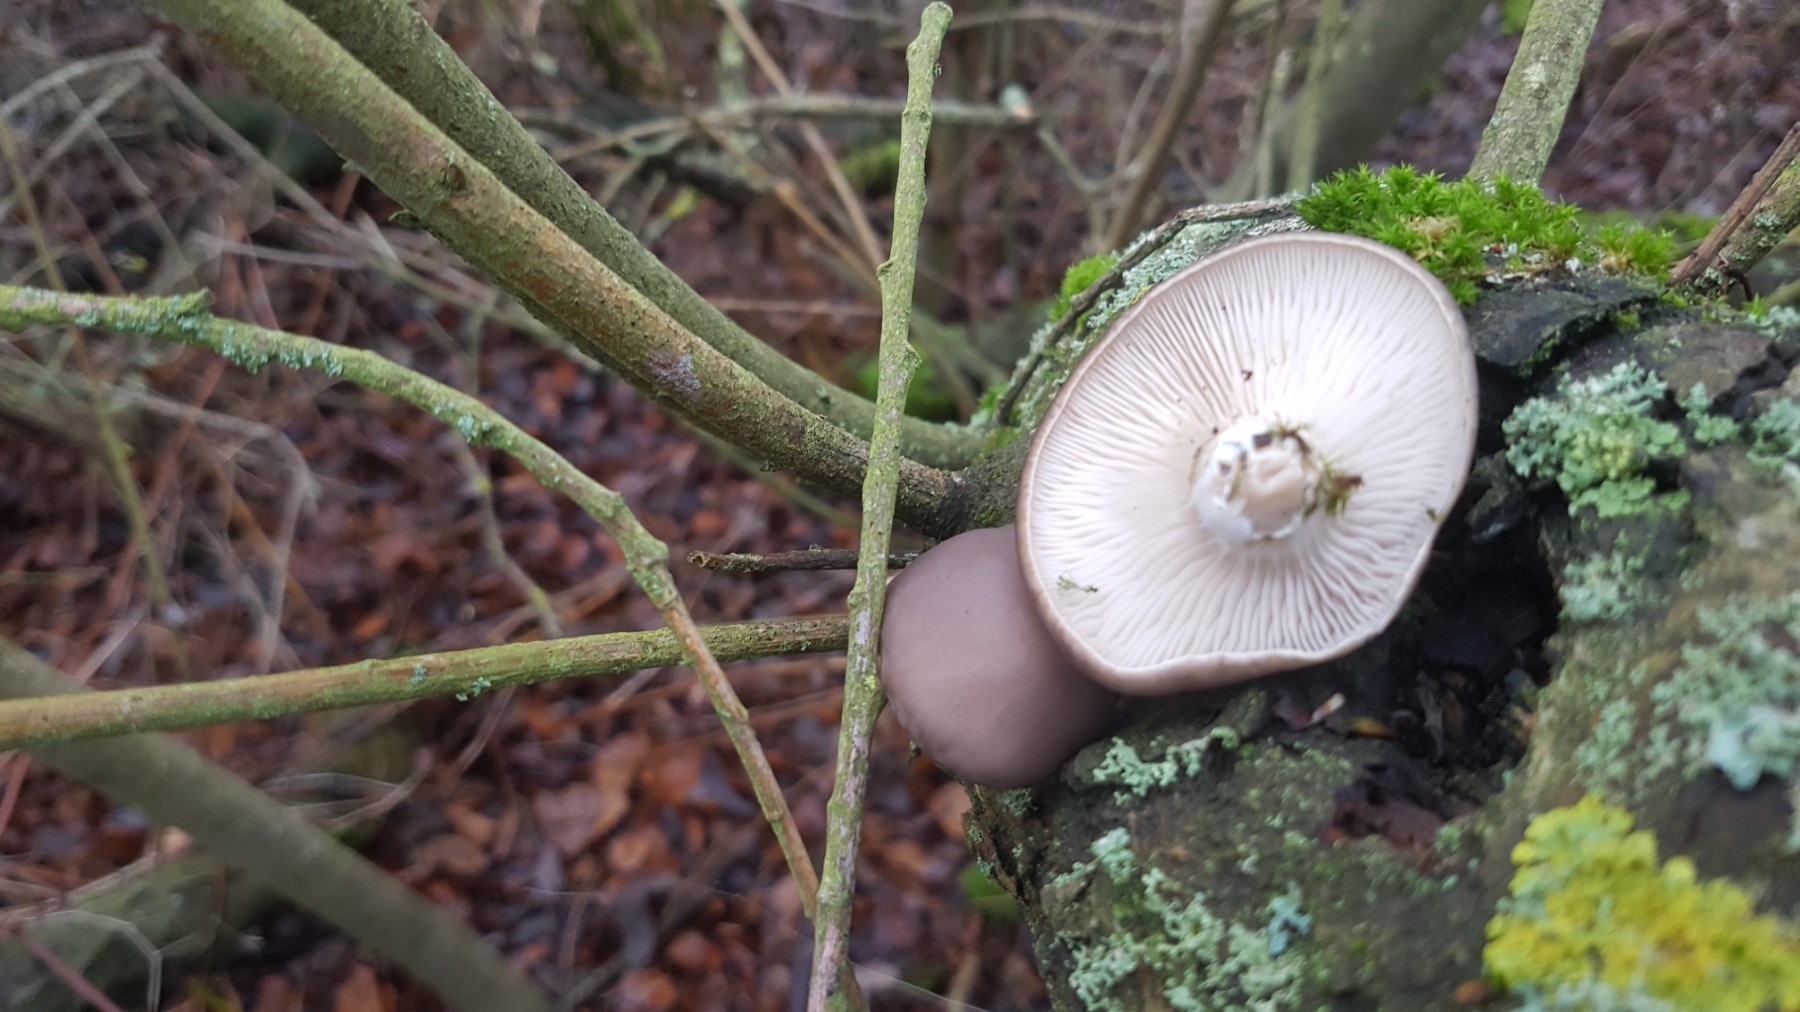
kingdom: Fungi
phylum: Basidiomycota
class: Agaricomycetes
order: Agaricales
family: Pleurotaceae
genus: Pleurotus
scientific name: Pleurotus ostreatus
